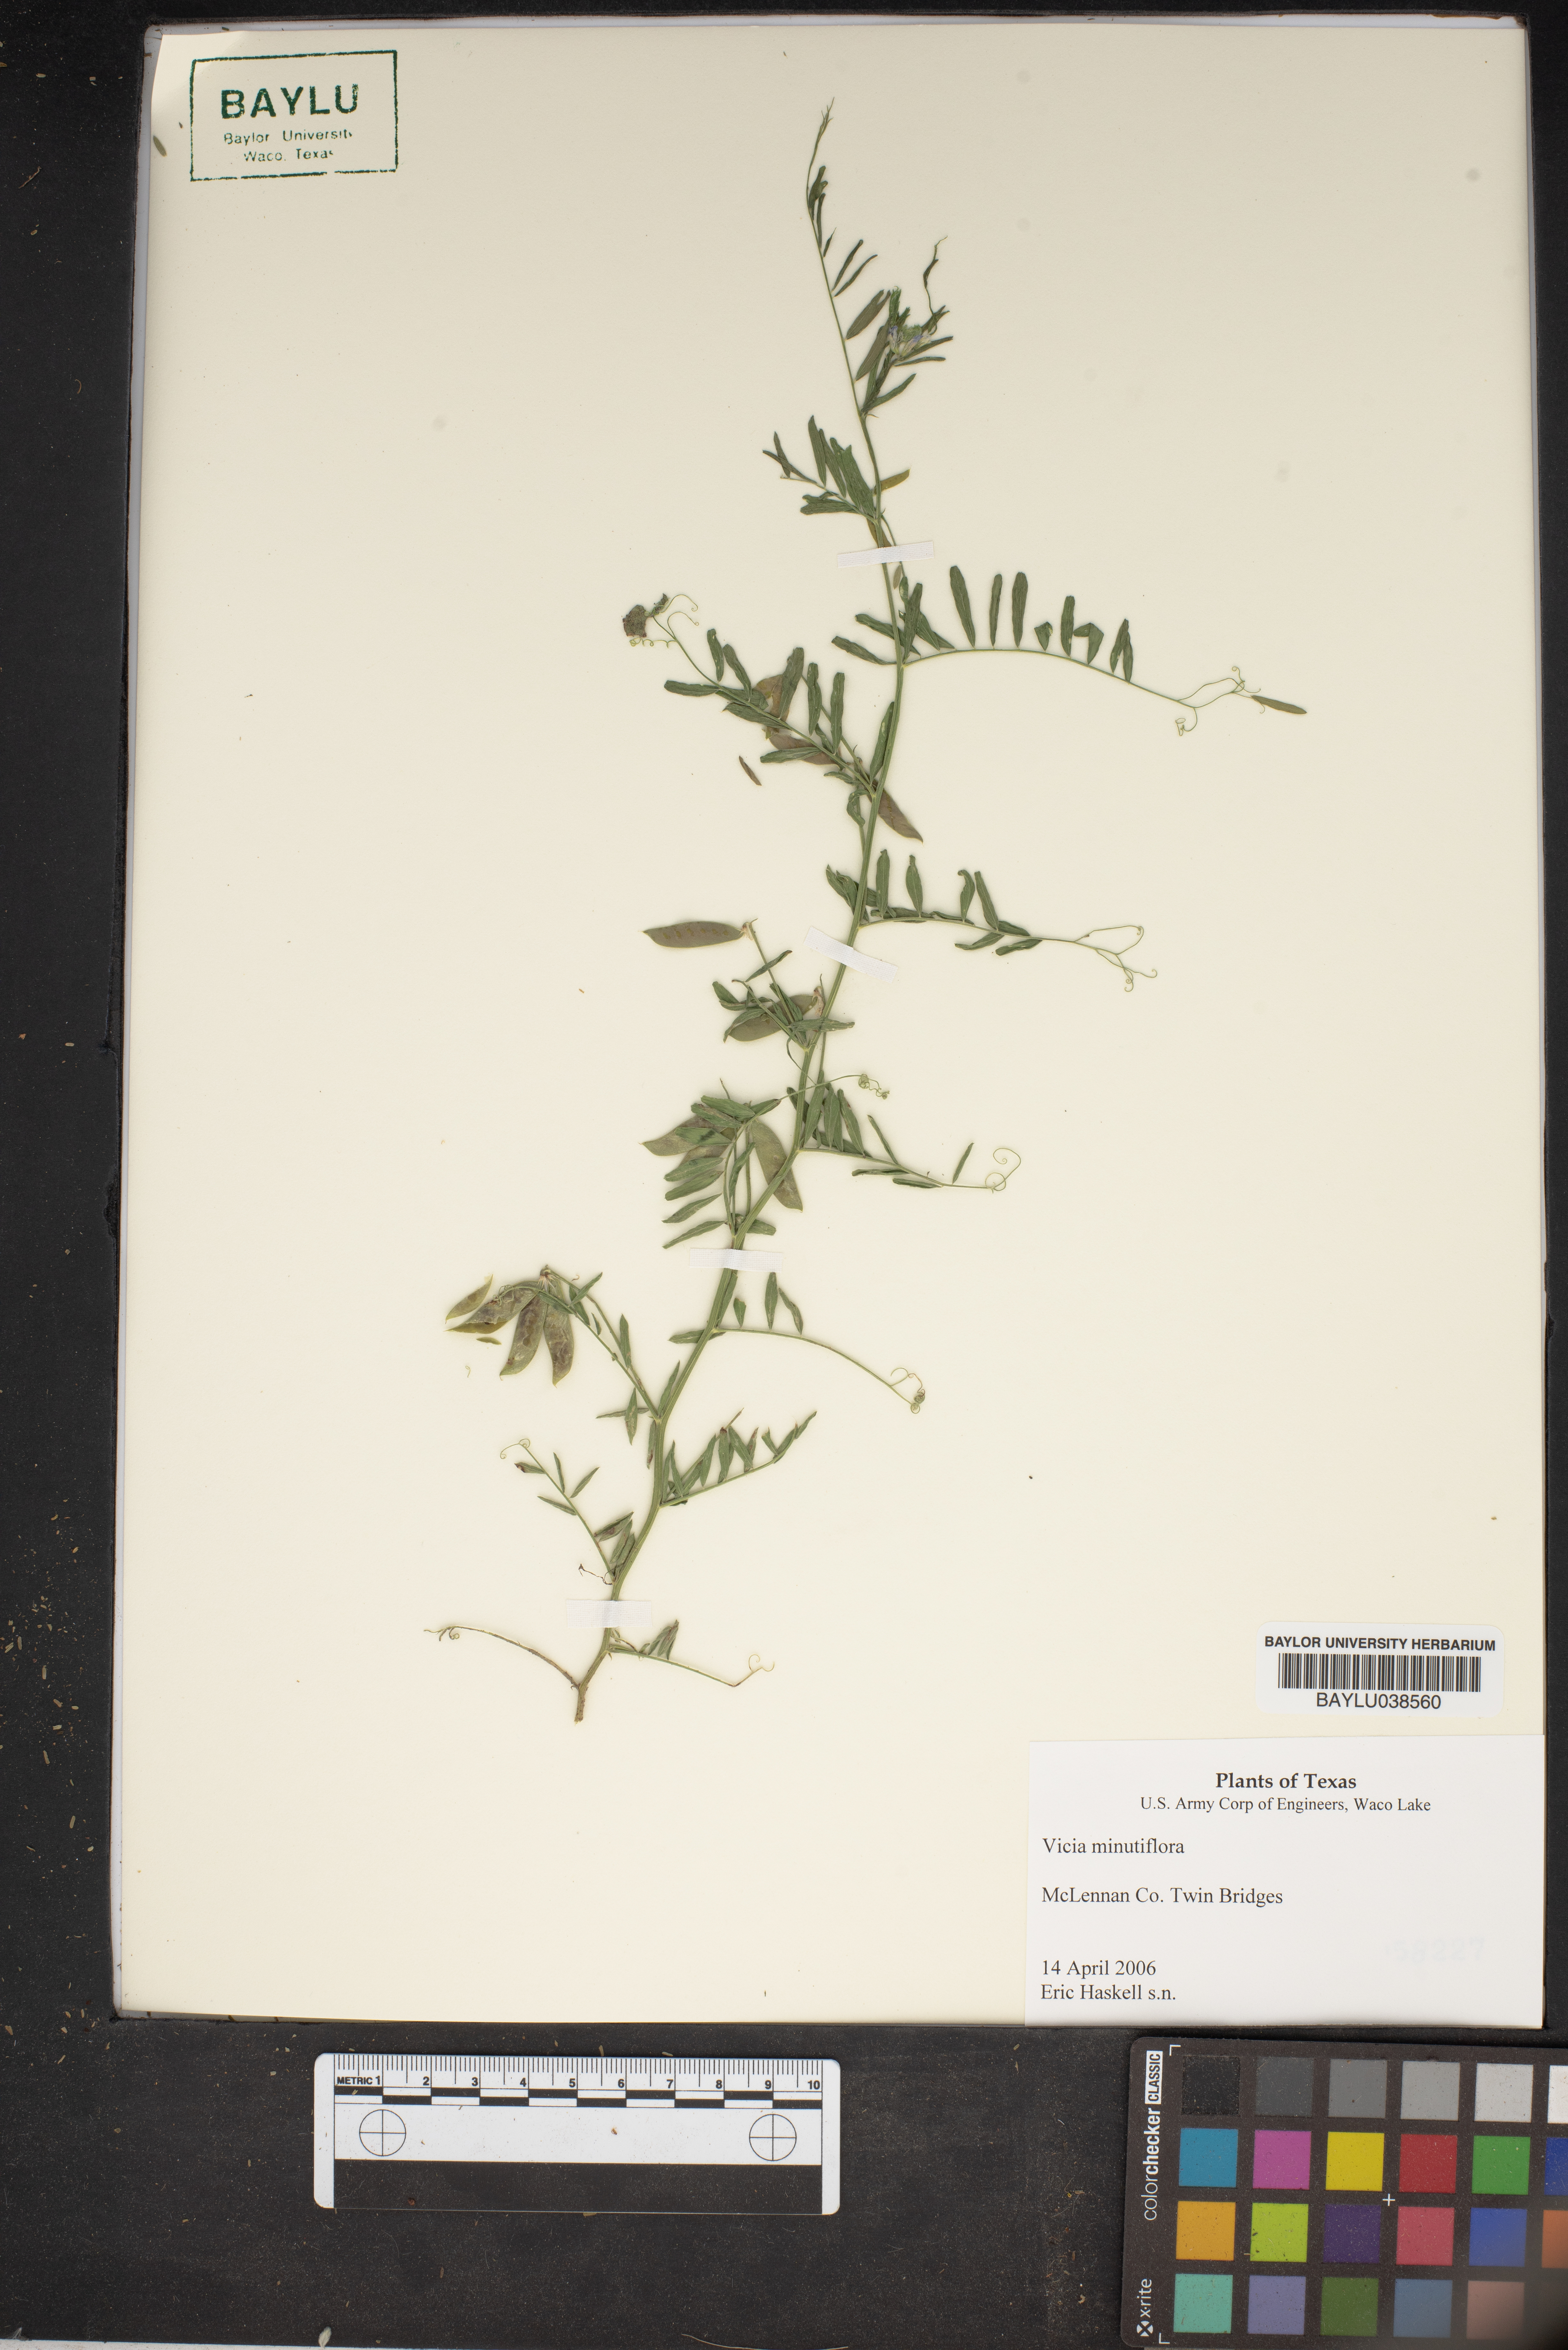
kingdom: Plantae
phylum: Tracheophyta
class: Magnoliopsida
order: Fabales
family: Fabaceae
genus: Vicia
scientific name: Vicia minutiflora
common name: Pygmy-flower vetch
